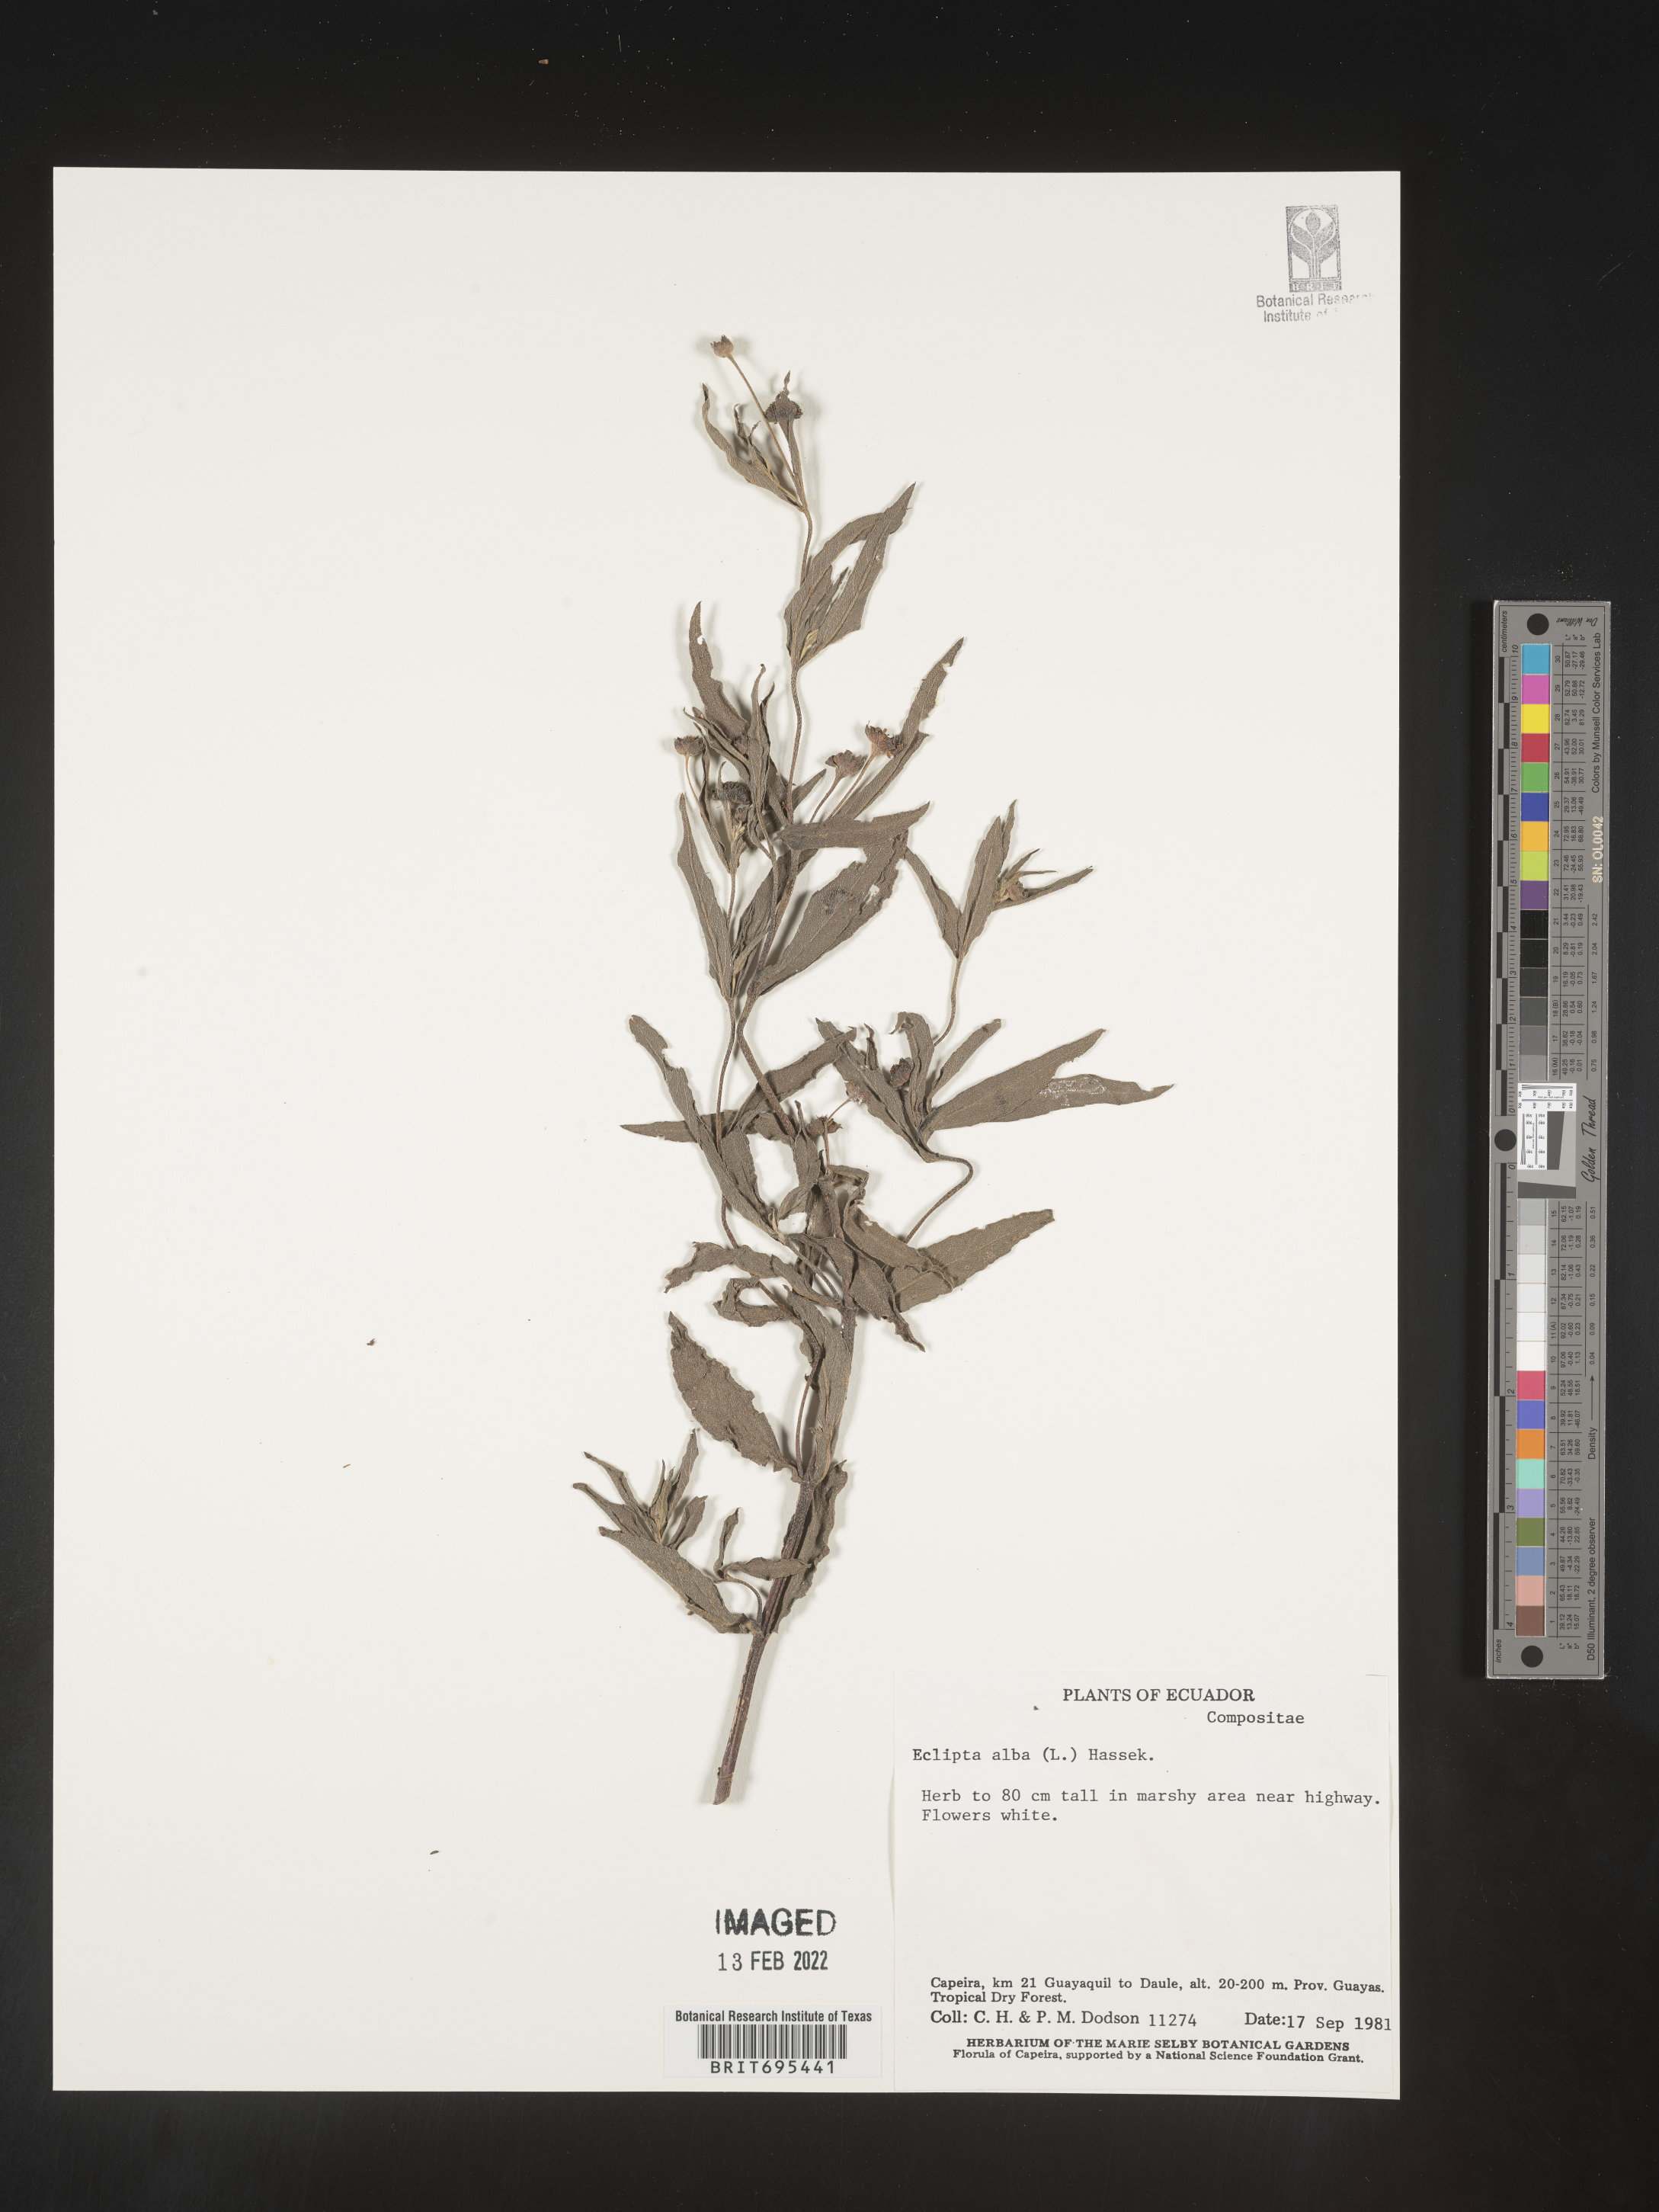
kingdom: Plantae
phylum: Tracheophyta
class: Magnoliopsida
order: Asterales
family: Asteraceae
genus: Eclipta
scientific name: Eclipta
